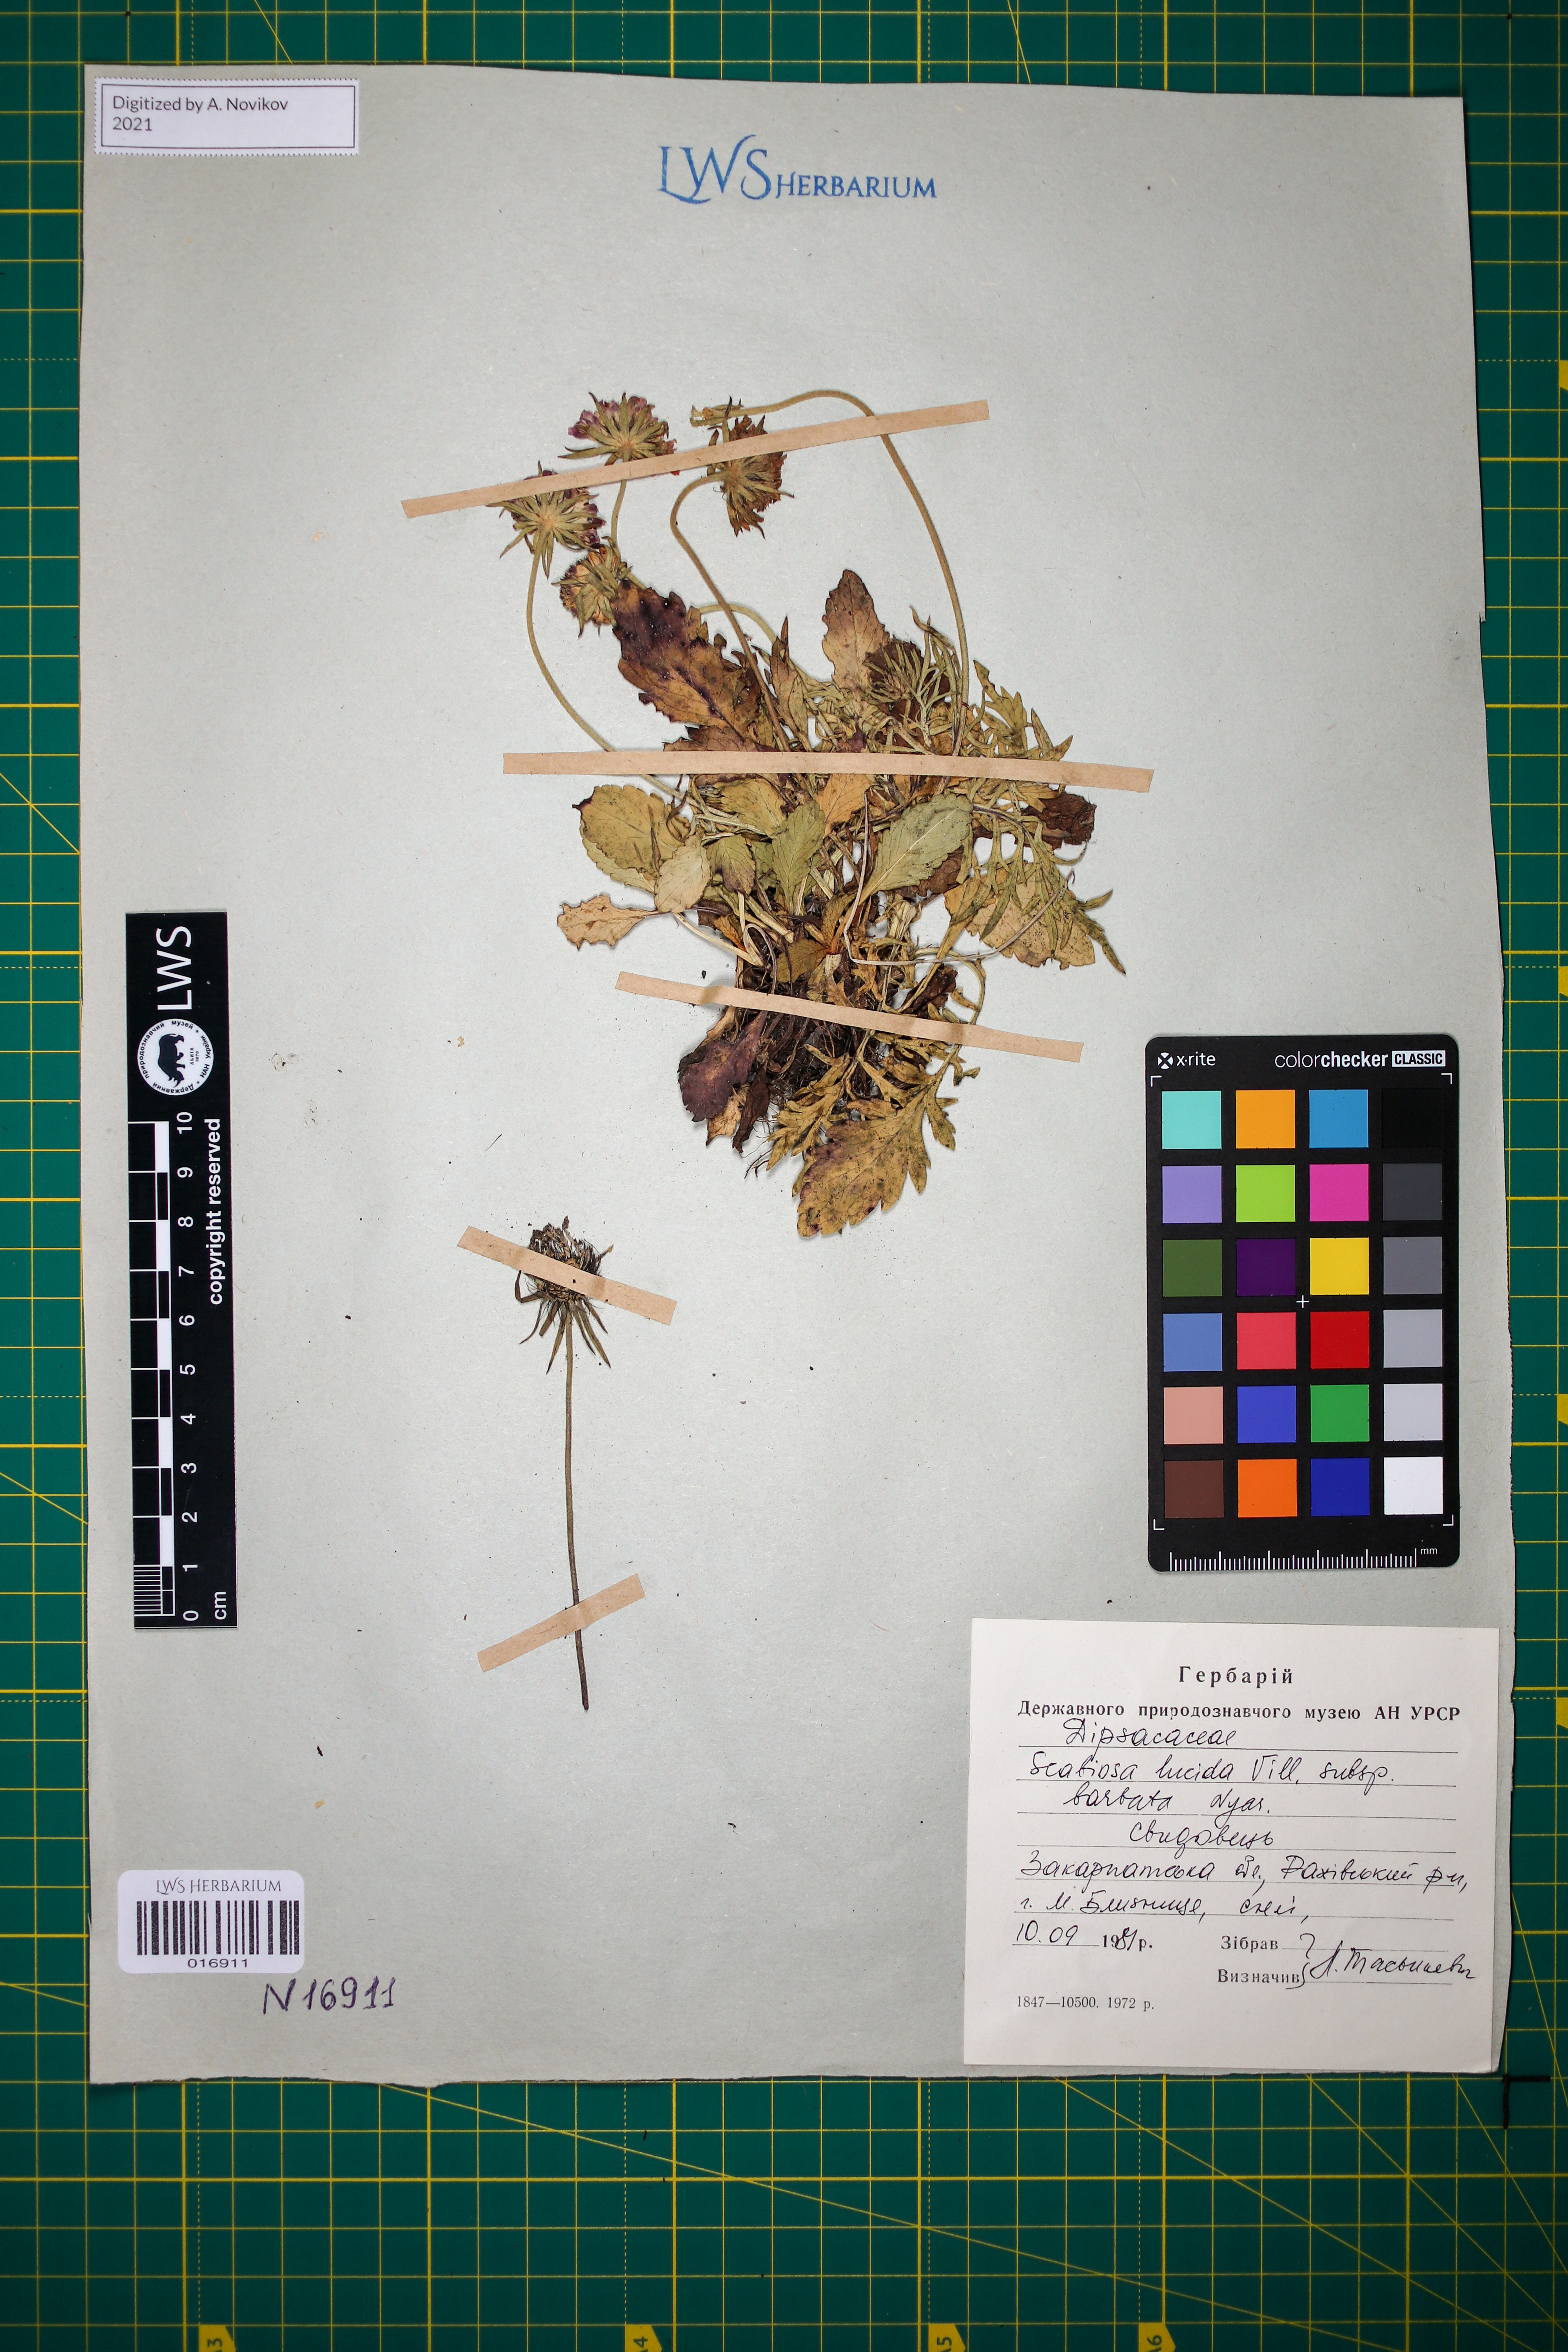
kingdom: Plantae
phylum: Tracheophyta
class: Magnoliopsida
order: Dipsacales
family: Caprifoliaceae
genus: Scabiosa
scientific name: Scabiosa lucida
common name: Shining scabious
